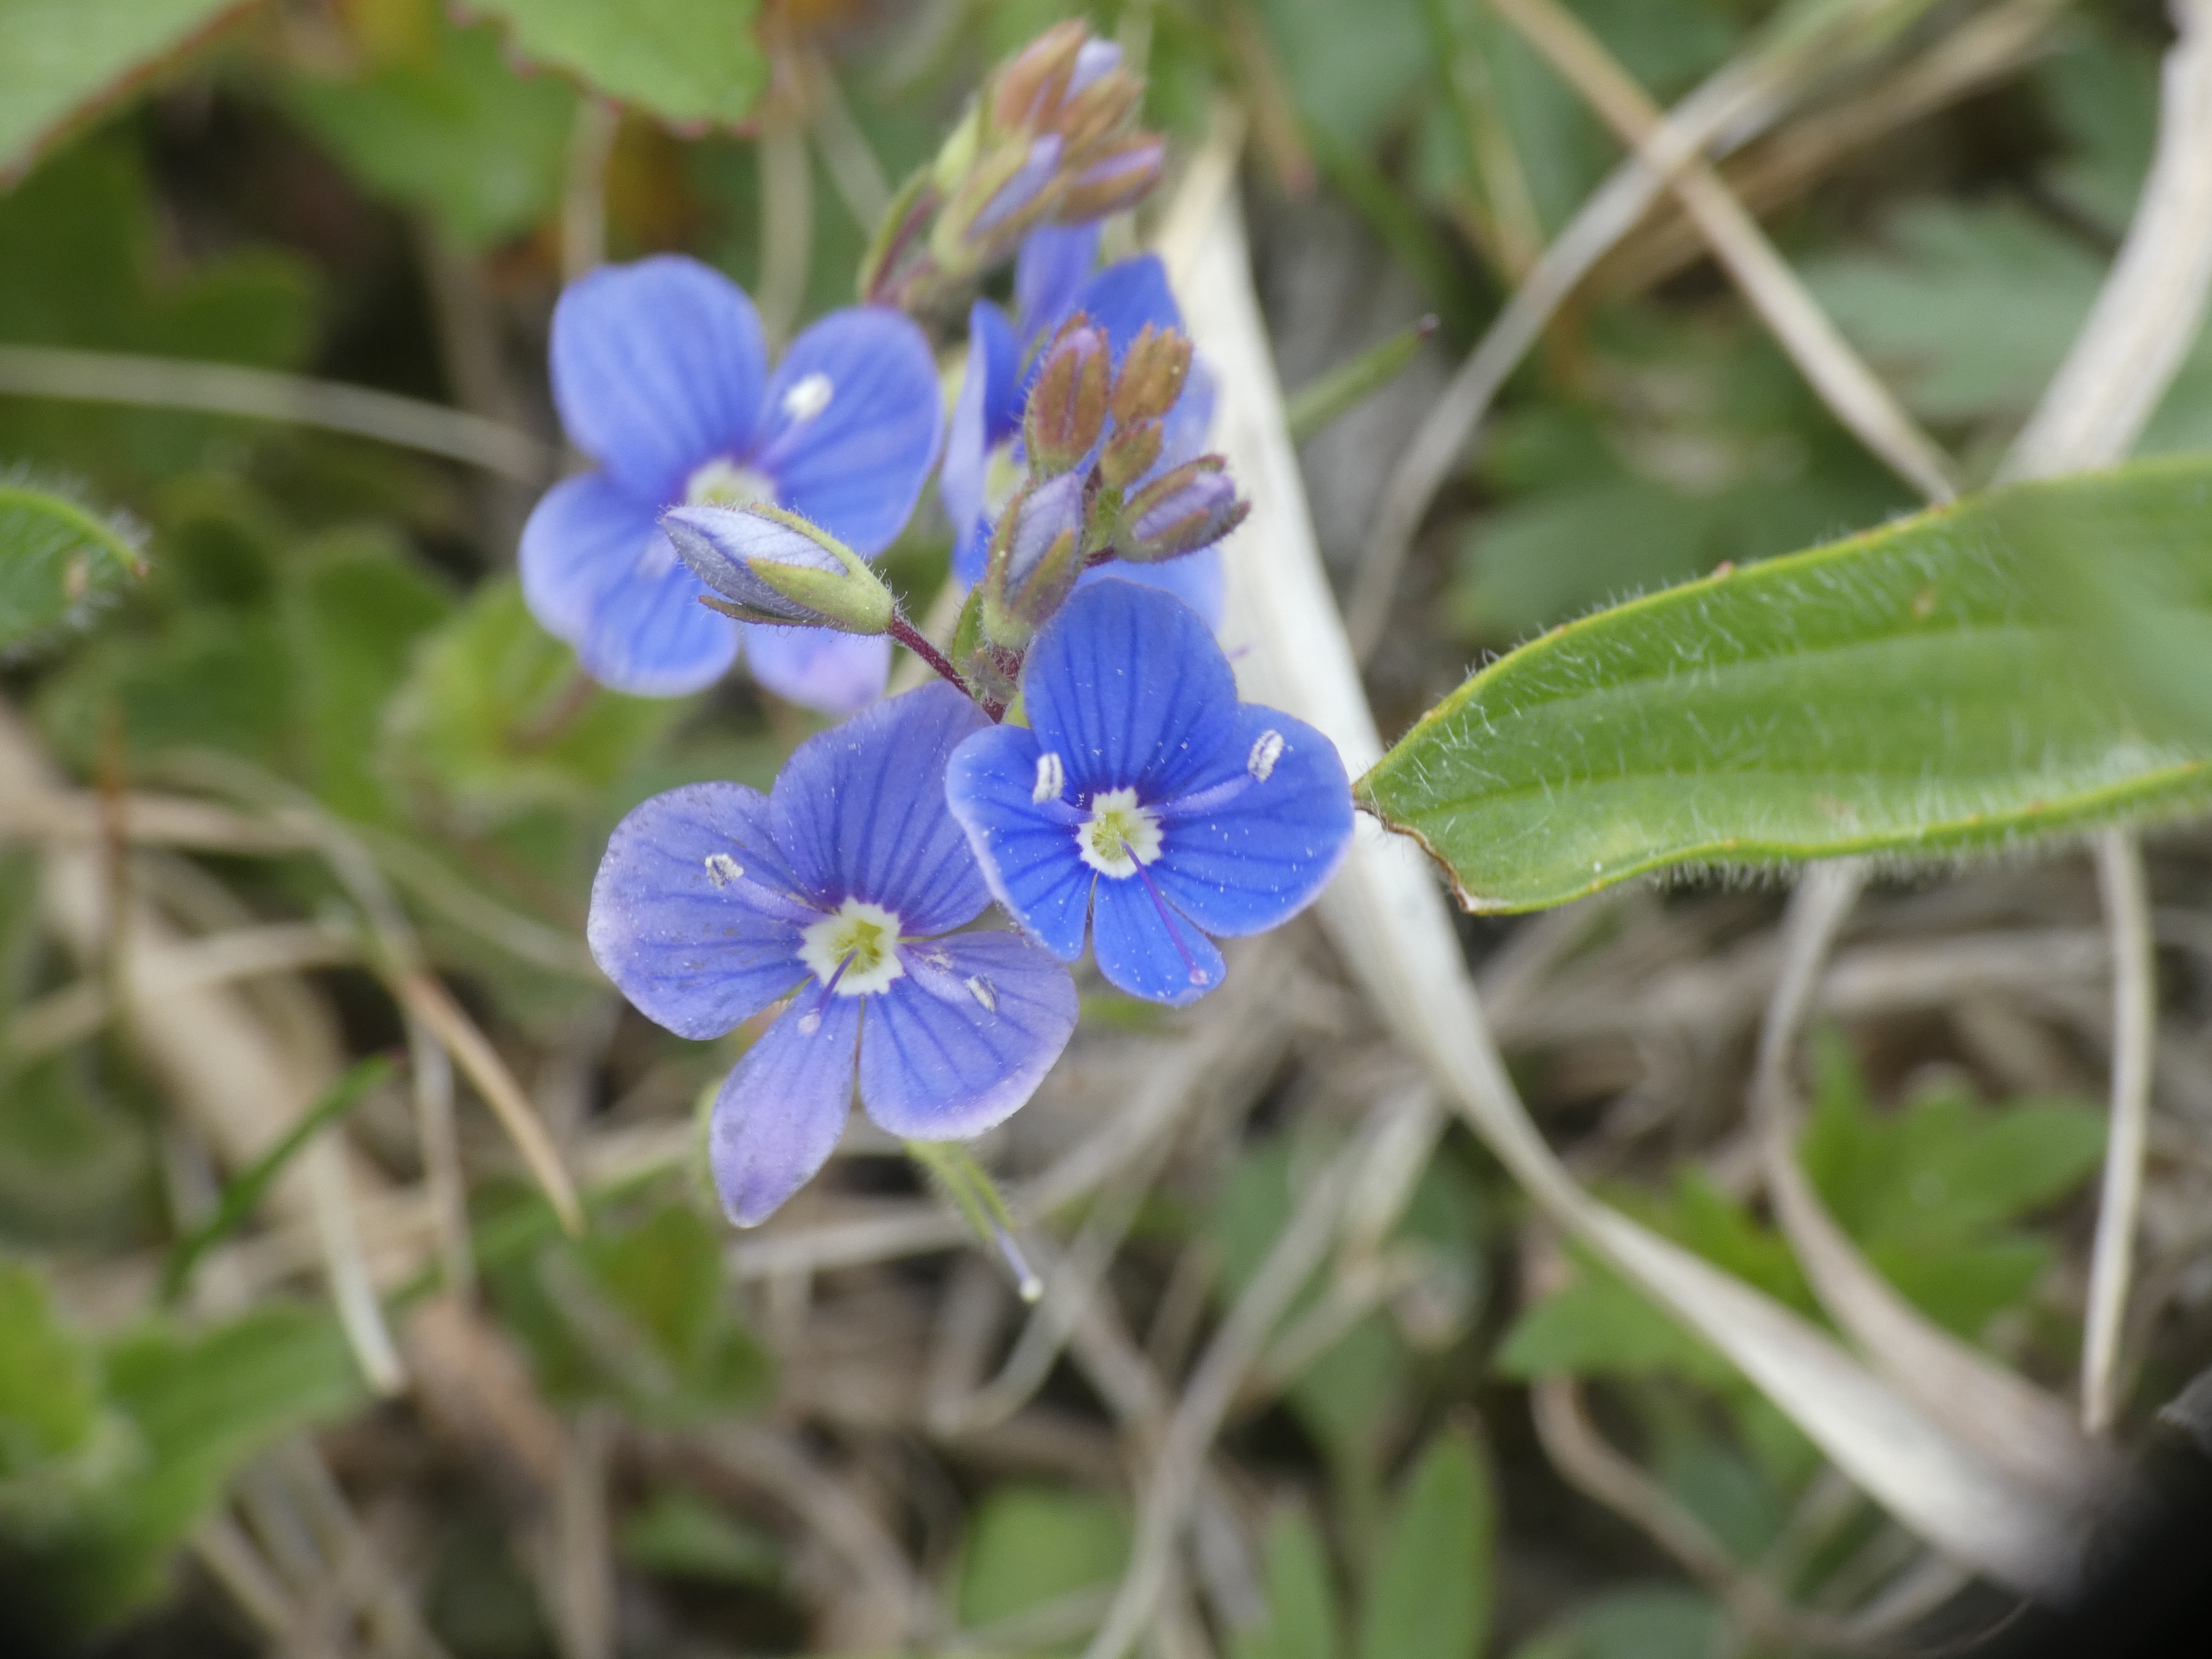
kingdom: Plantae
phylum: Tracheophyta
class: Magnoliopsida
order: Lamiales
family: Plantaginaceae
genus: Veronica
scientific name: Veronica chamaedrys
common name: Tveskægget ærenpris
